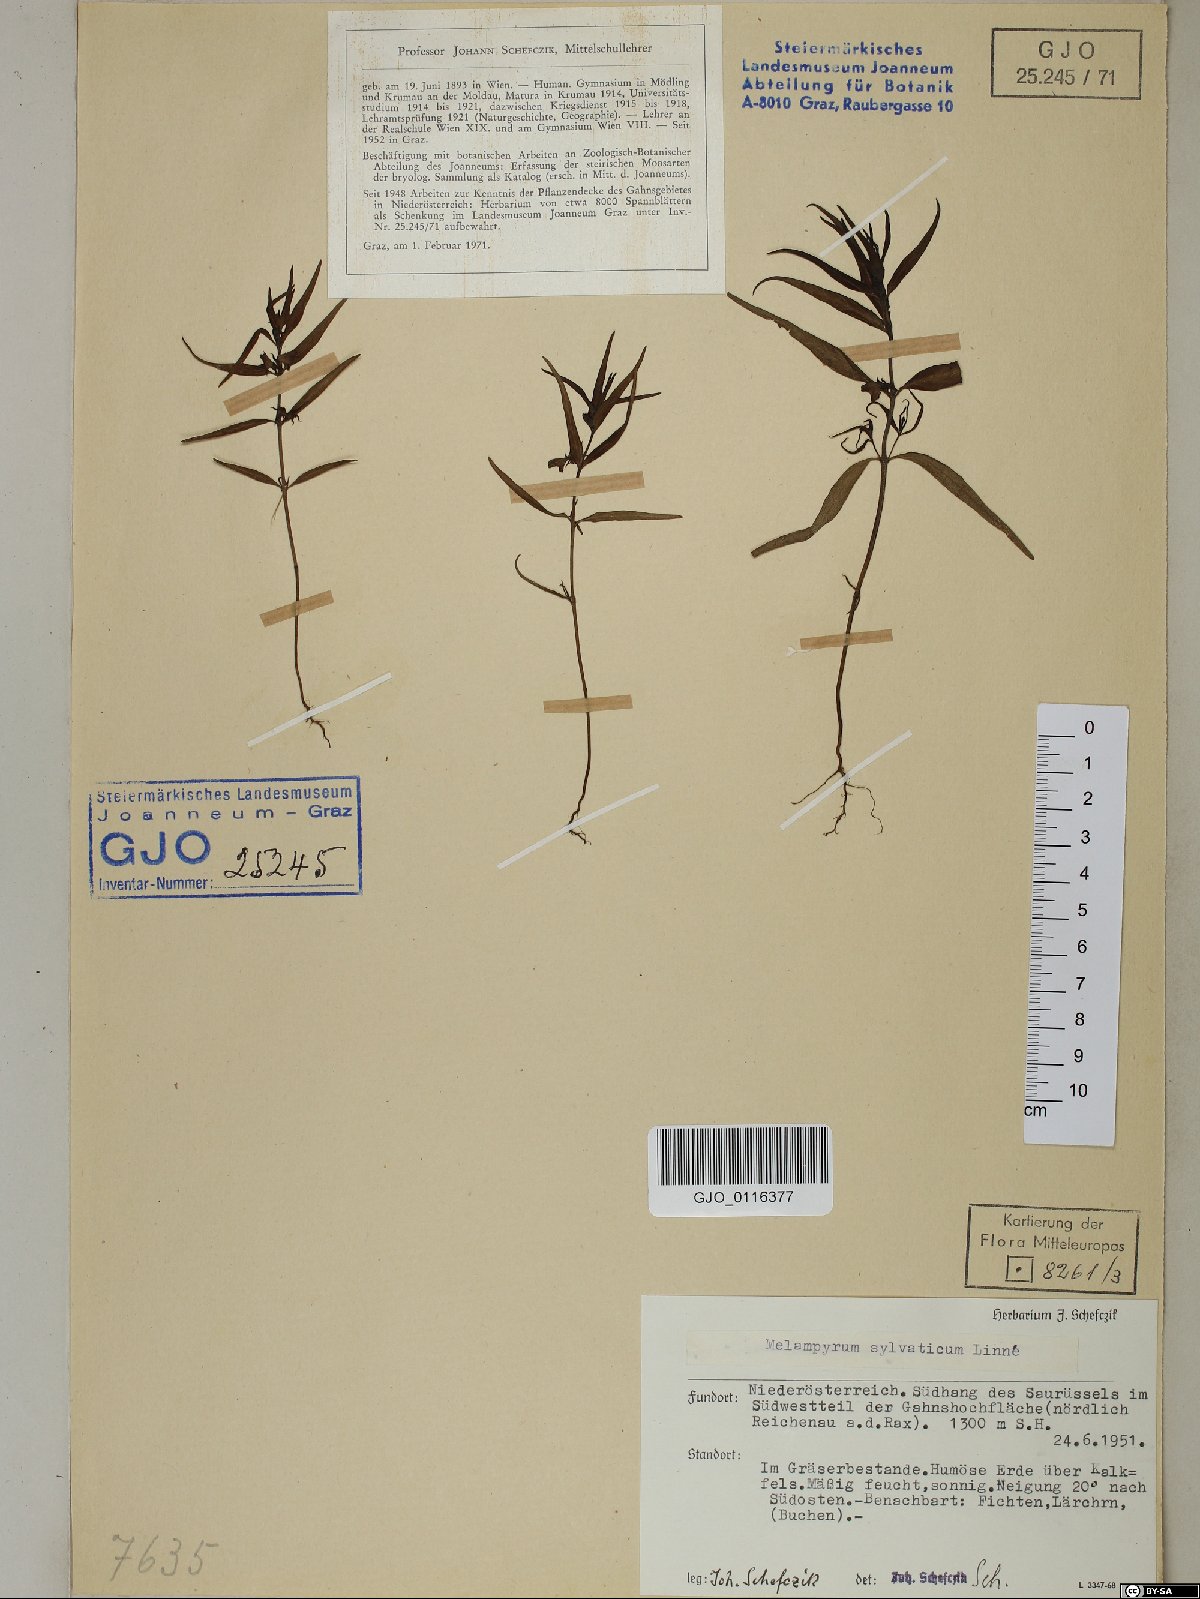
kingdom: Plantae
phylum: Tracheophyta
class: Magnoliopsida
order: Lamiales
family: Orobanchaceae
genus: Melampyrum
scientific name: Melampyrum sylvaticum
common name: Small cow-wheat
